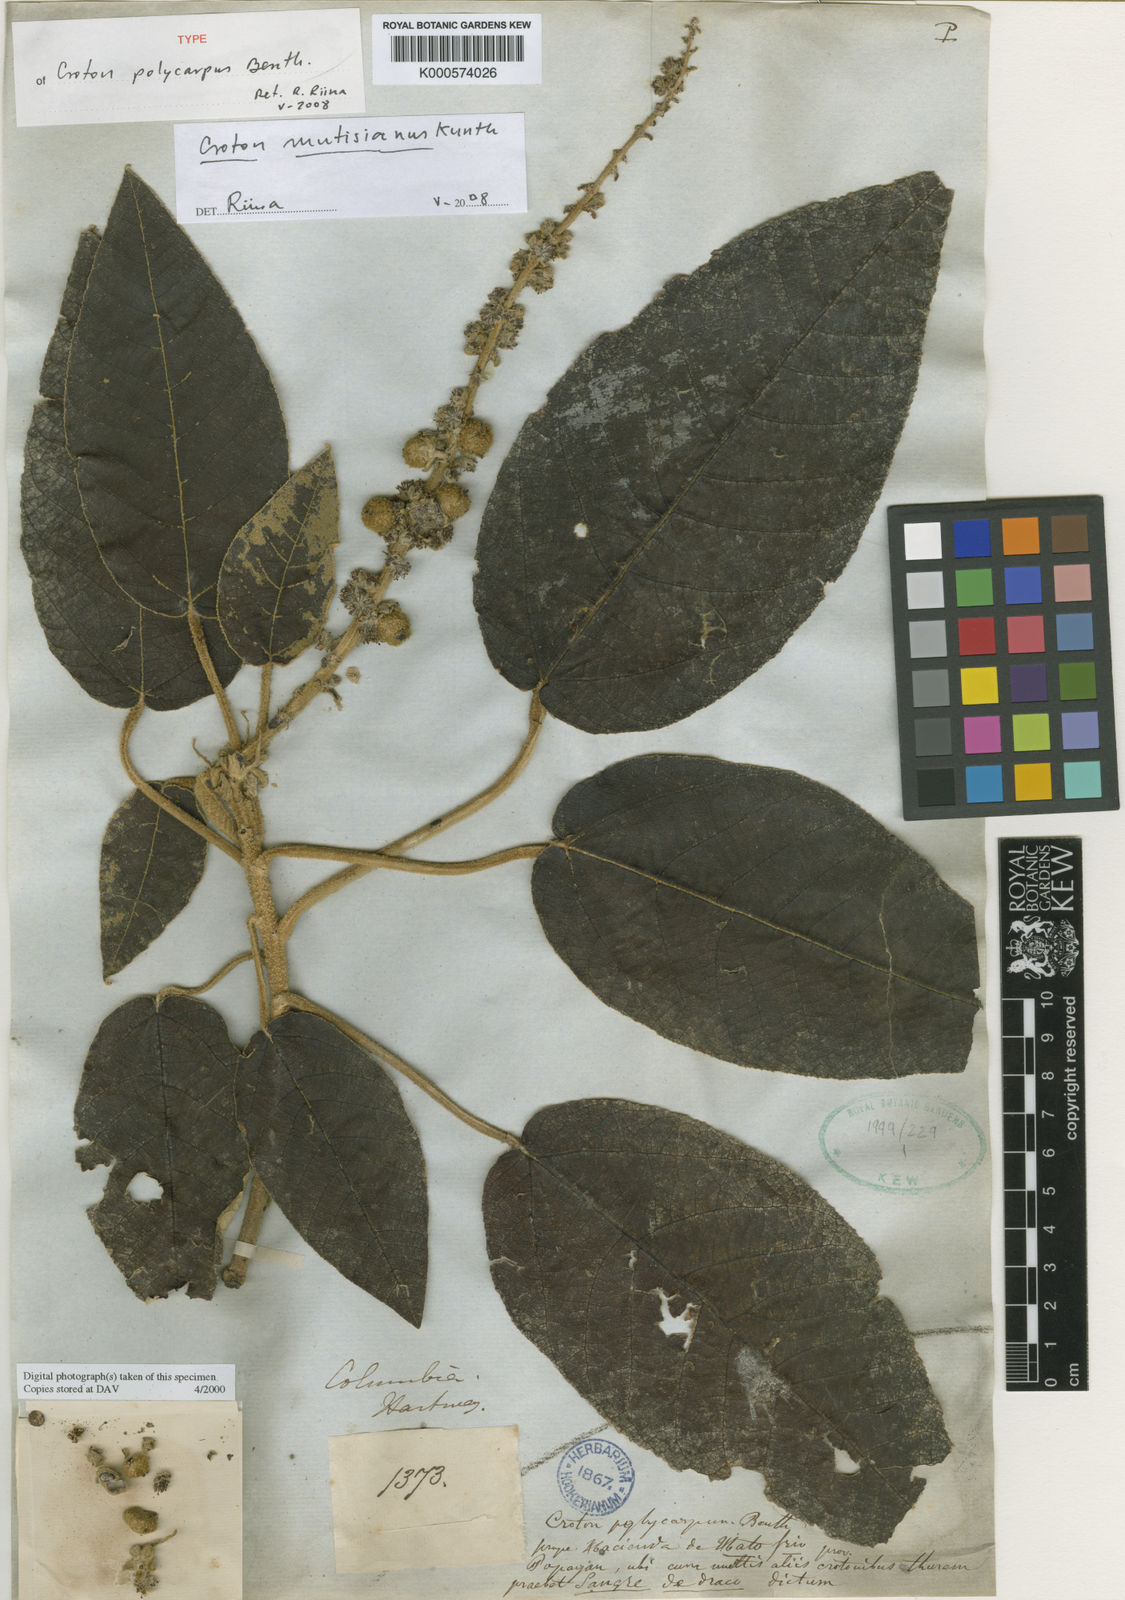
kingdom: Plantae
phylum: Tracheophyta
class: Magnoliopsida
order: Malpighiales
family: Euphorbiaceae
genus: Croton
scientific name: Croton mutisianus
